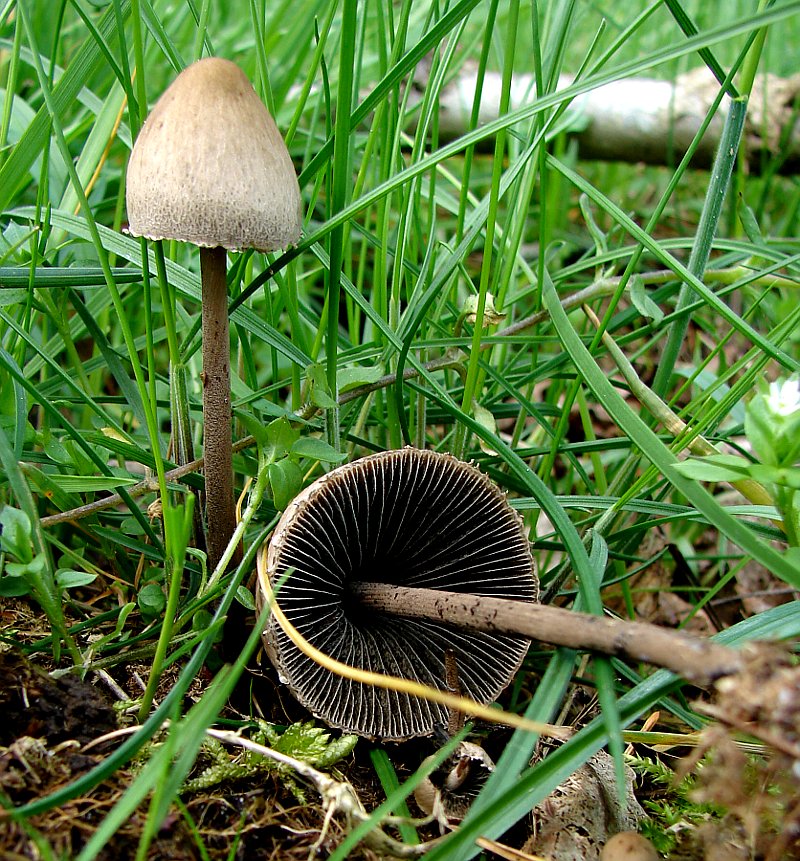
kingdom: Fungi
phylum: Basidiomycota
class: Agaricomycetes
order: Agaricales
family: Bolbitiaceae
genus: Panaeolus
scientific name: Panaeolus papilionaceus
